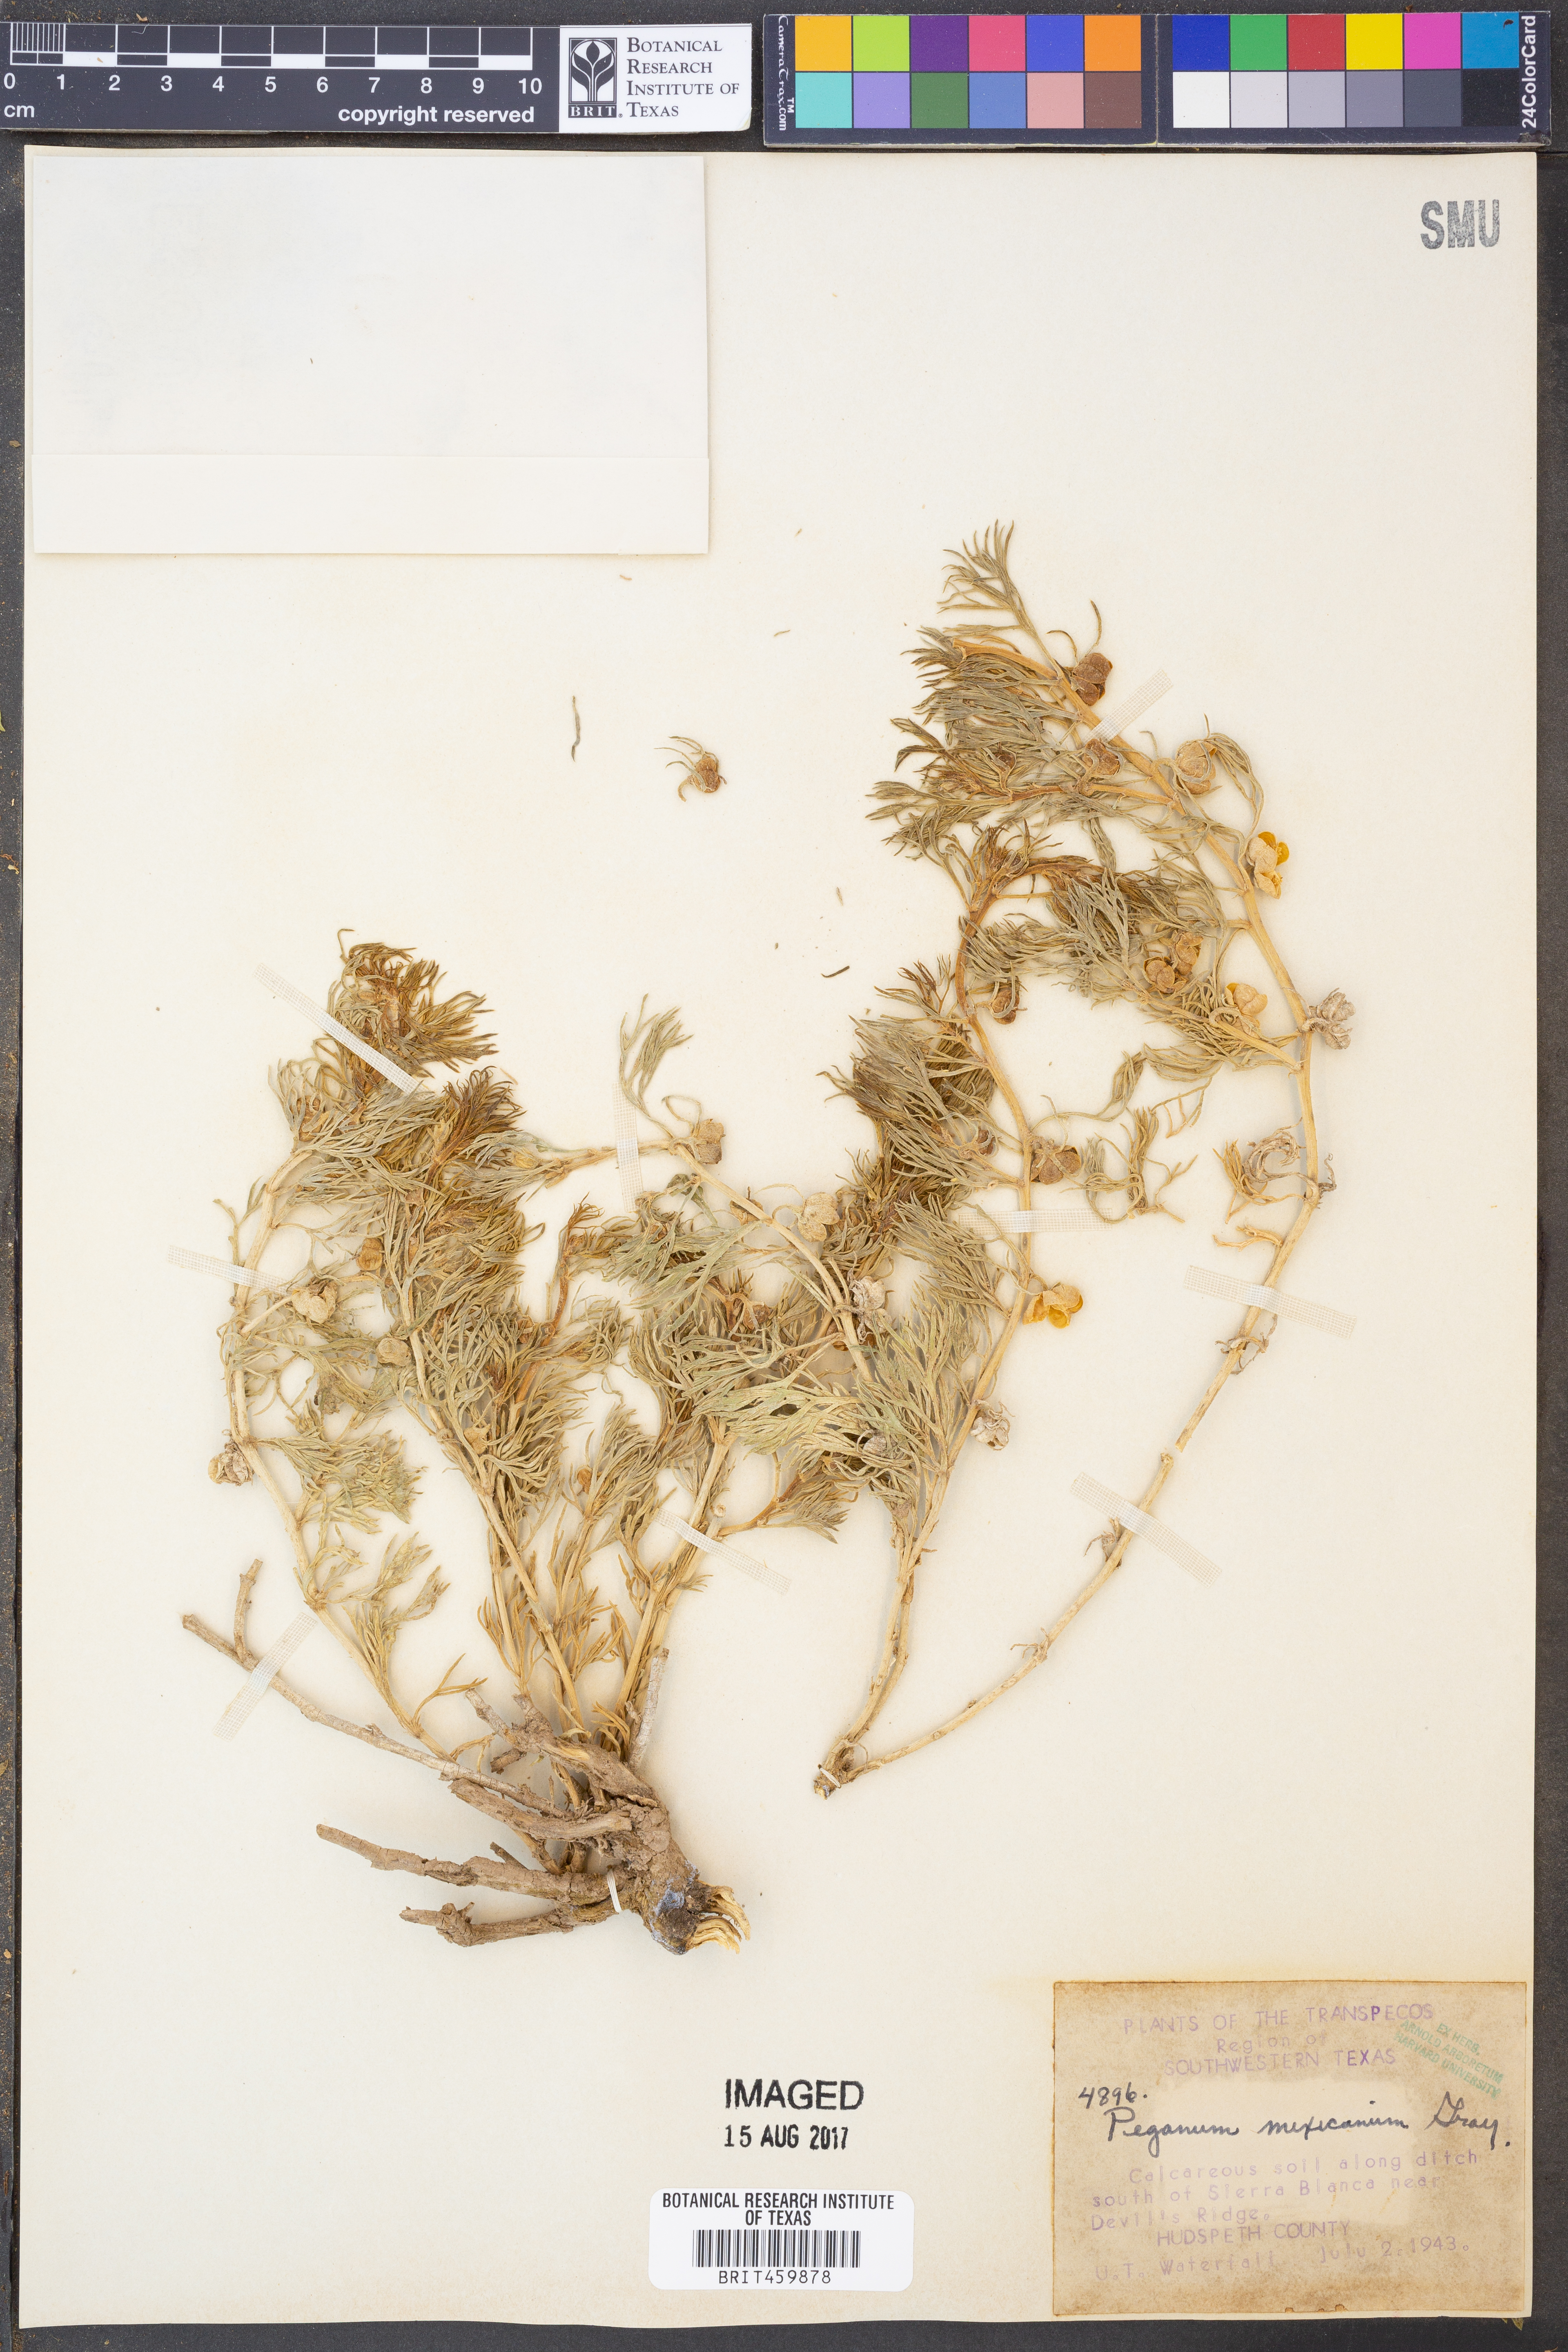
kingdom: Plantae
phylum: Tracheophyta
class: Magnoliopsida
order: Sapindales
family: Tetradiclidaceae
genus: Peganum
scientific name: Peganum mexicanum
